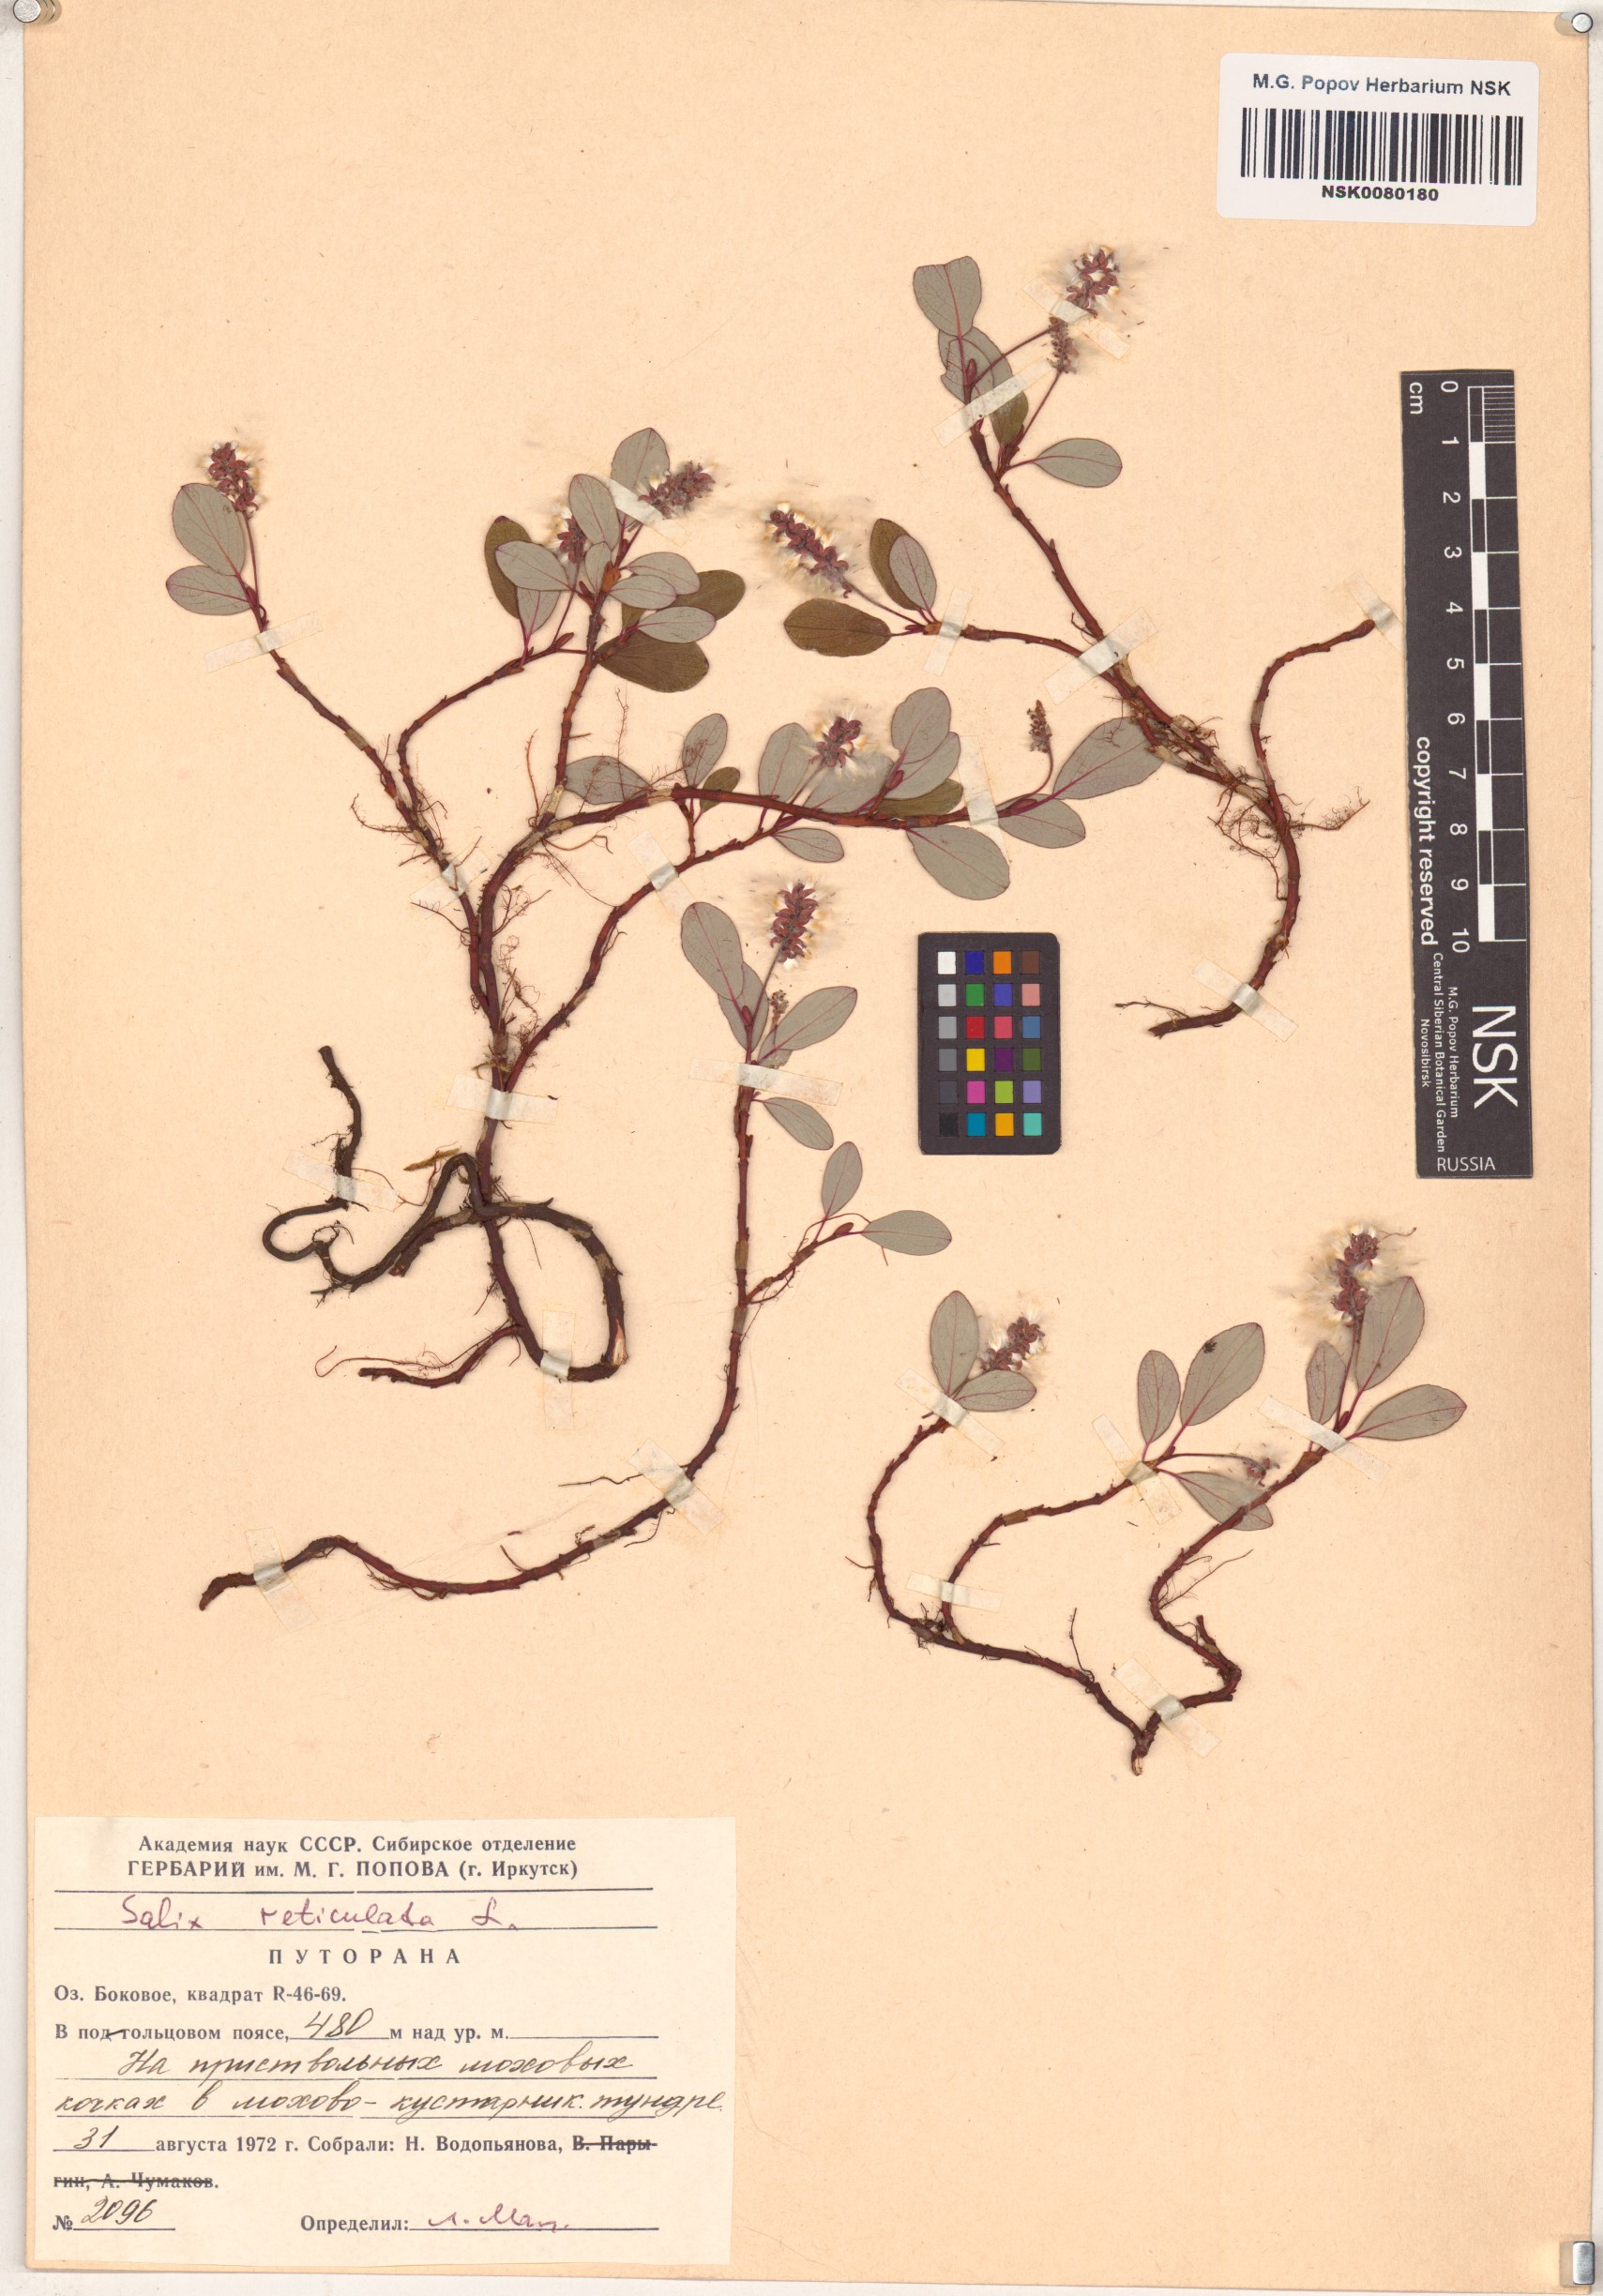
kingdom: Plantae
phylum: Tracheophyta
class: Magnoliopsida
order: Malpighiales
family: Salicaceae
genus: Salix
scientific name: Salix reticulata
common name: Net-leaved willow
